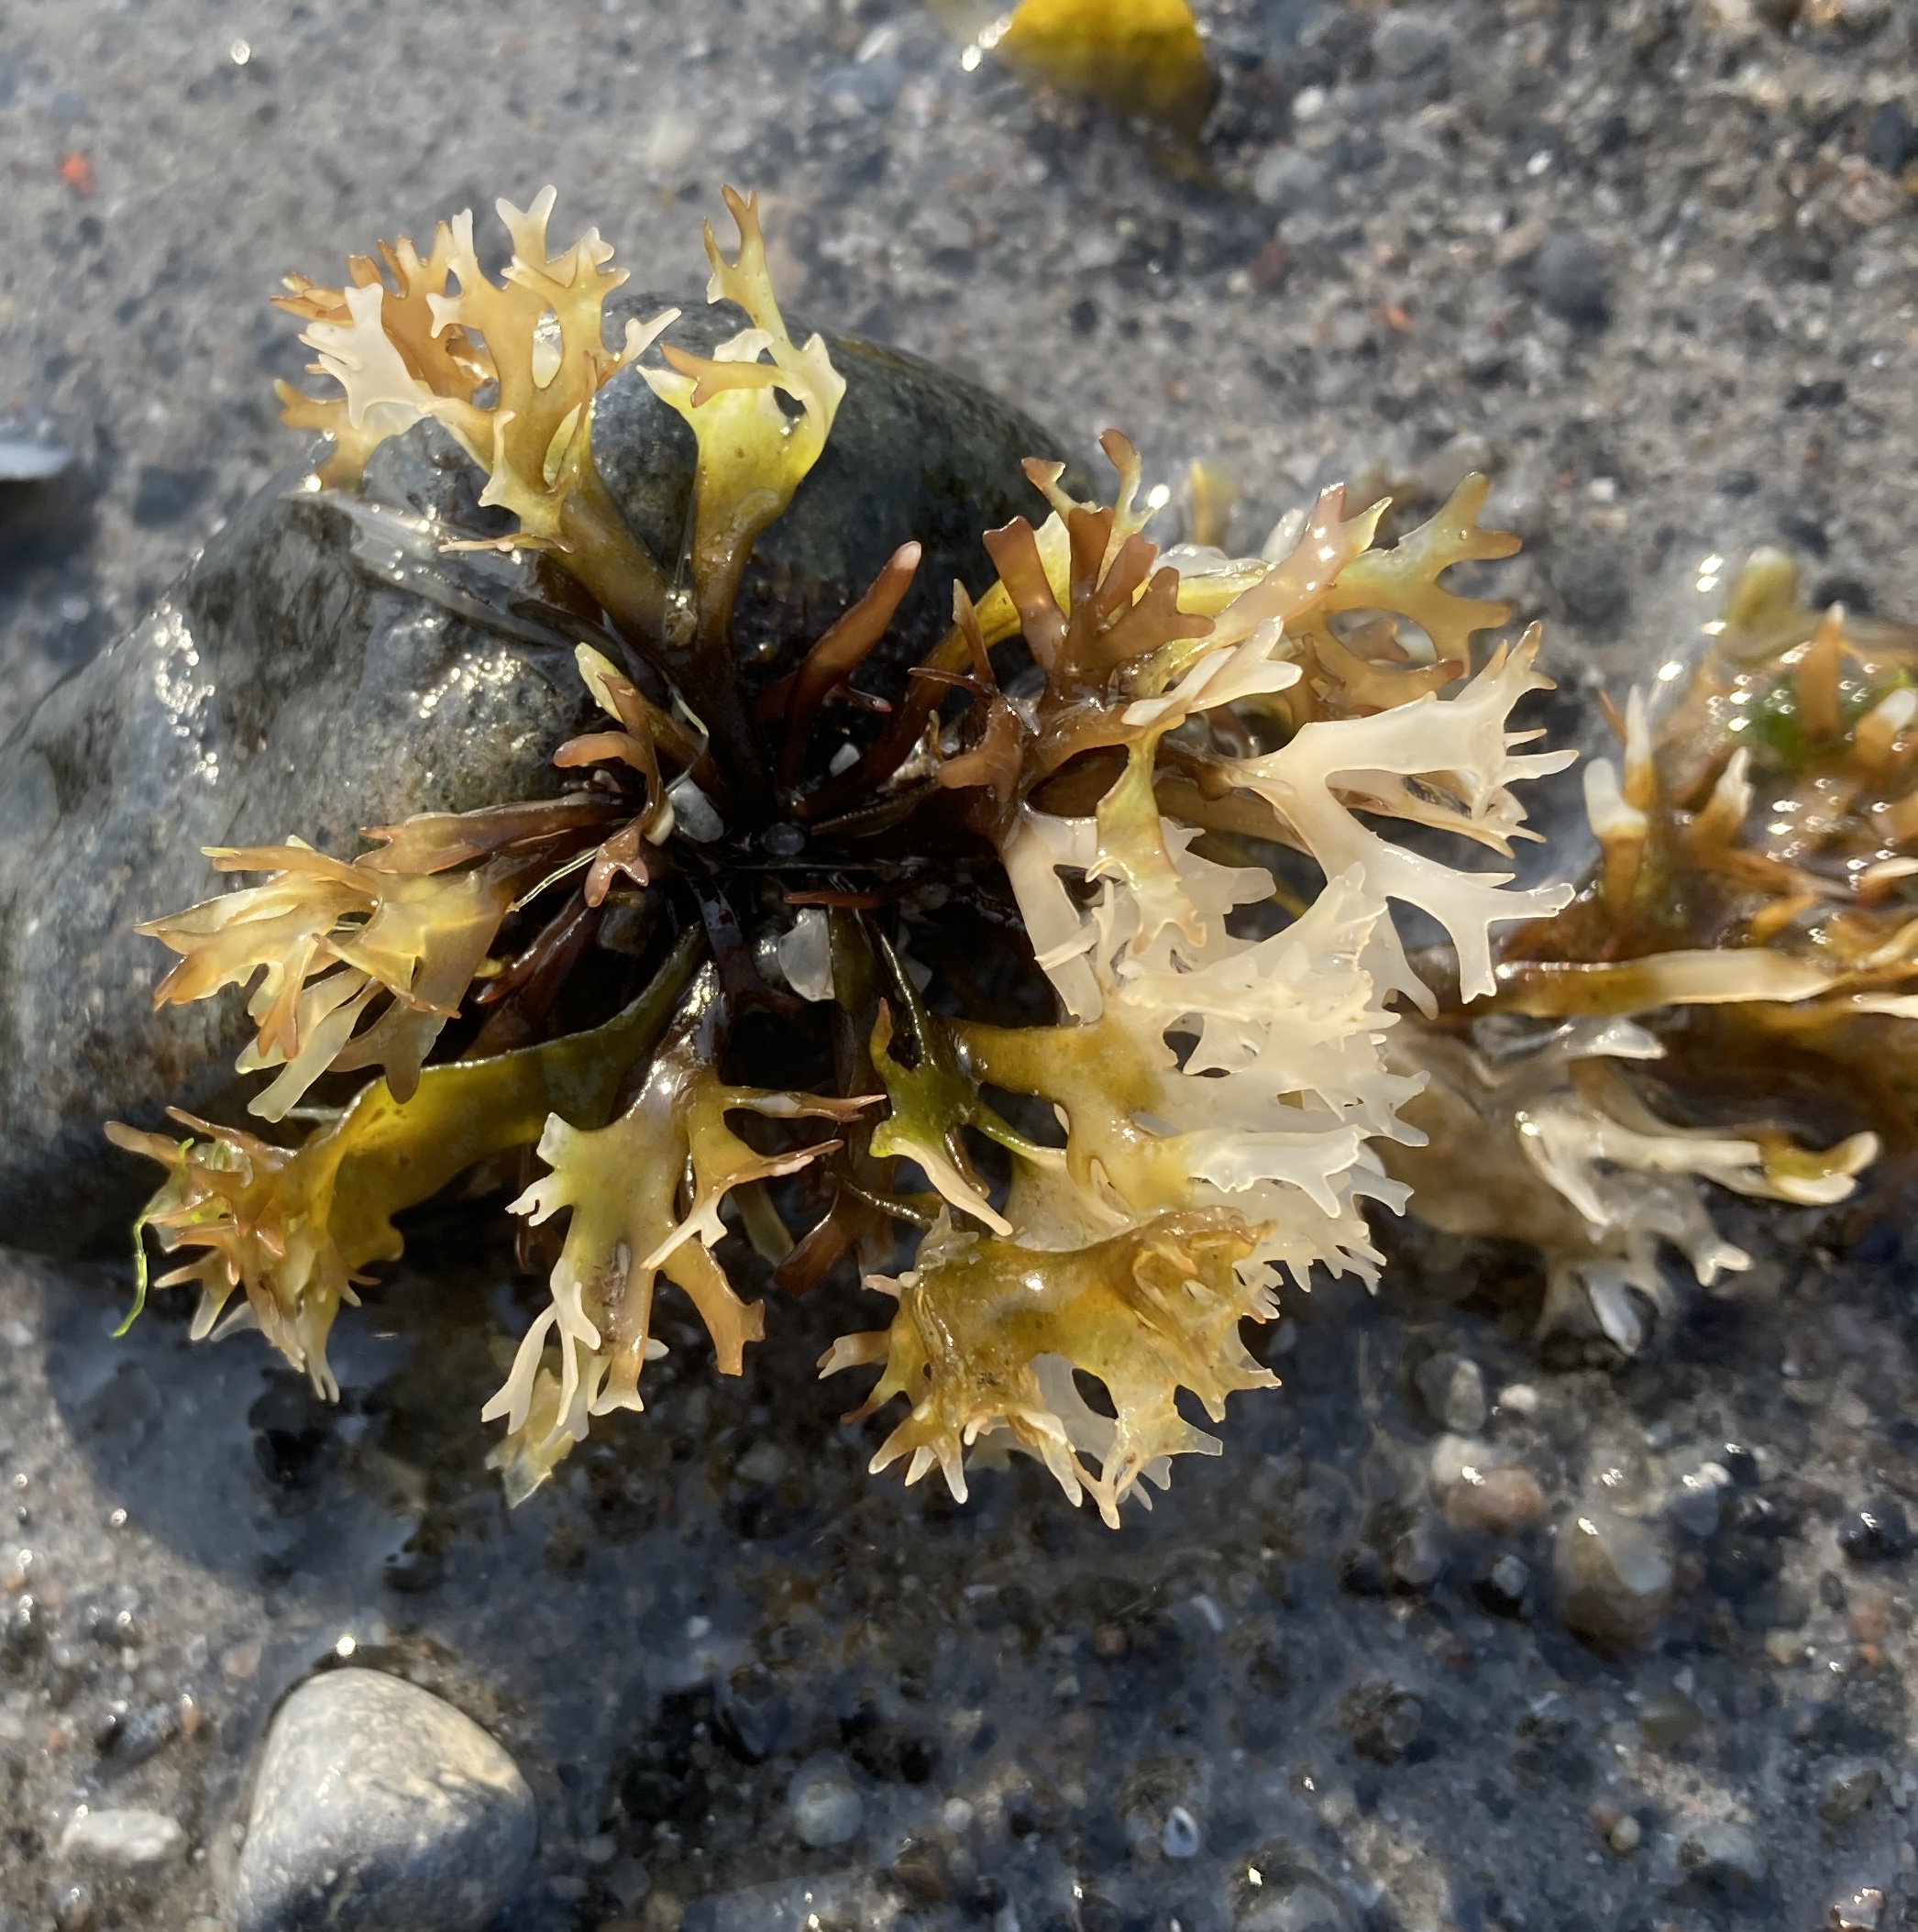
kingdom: Plantae
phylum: Rhodophyta
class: Florideophyceae
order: Gigartinales
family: Gigartinaceae
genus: Chondrus
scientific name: Chondrus crispus
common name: Carrageentang
